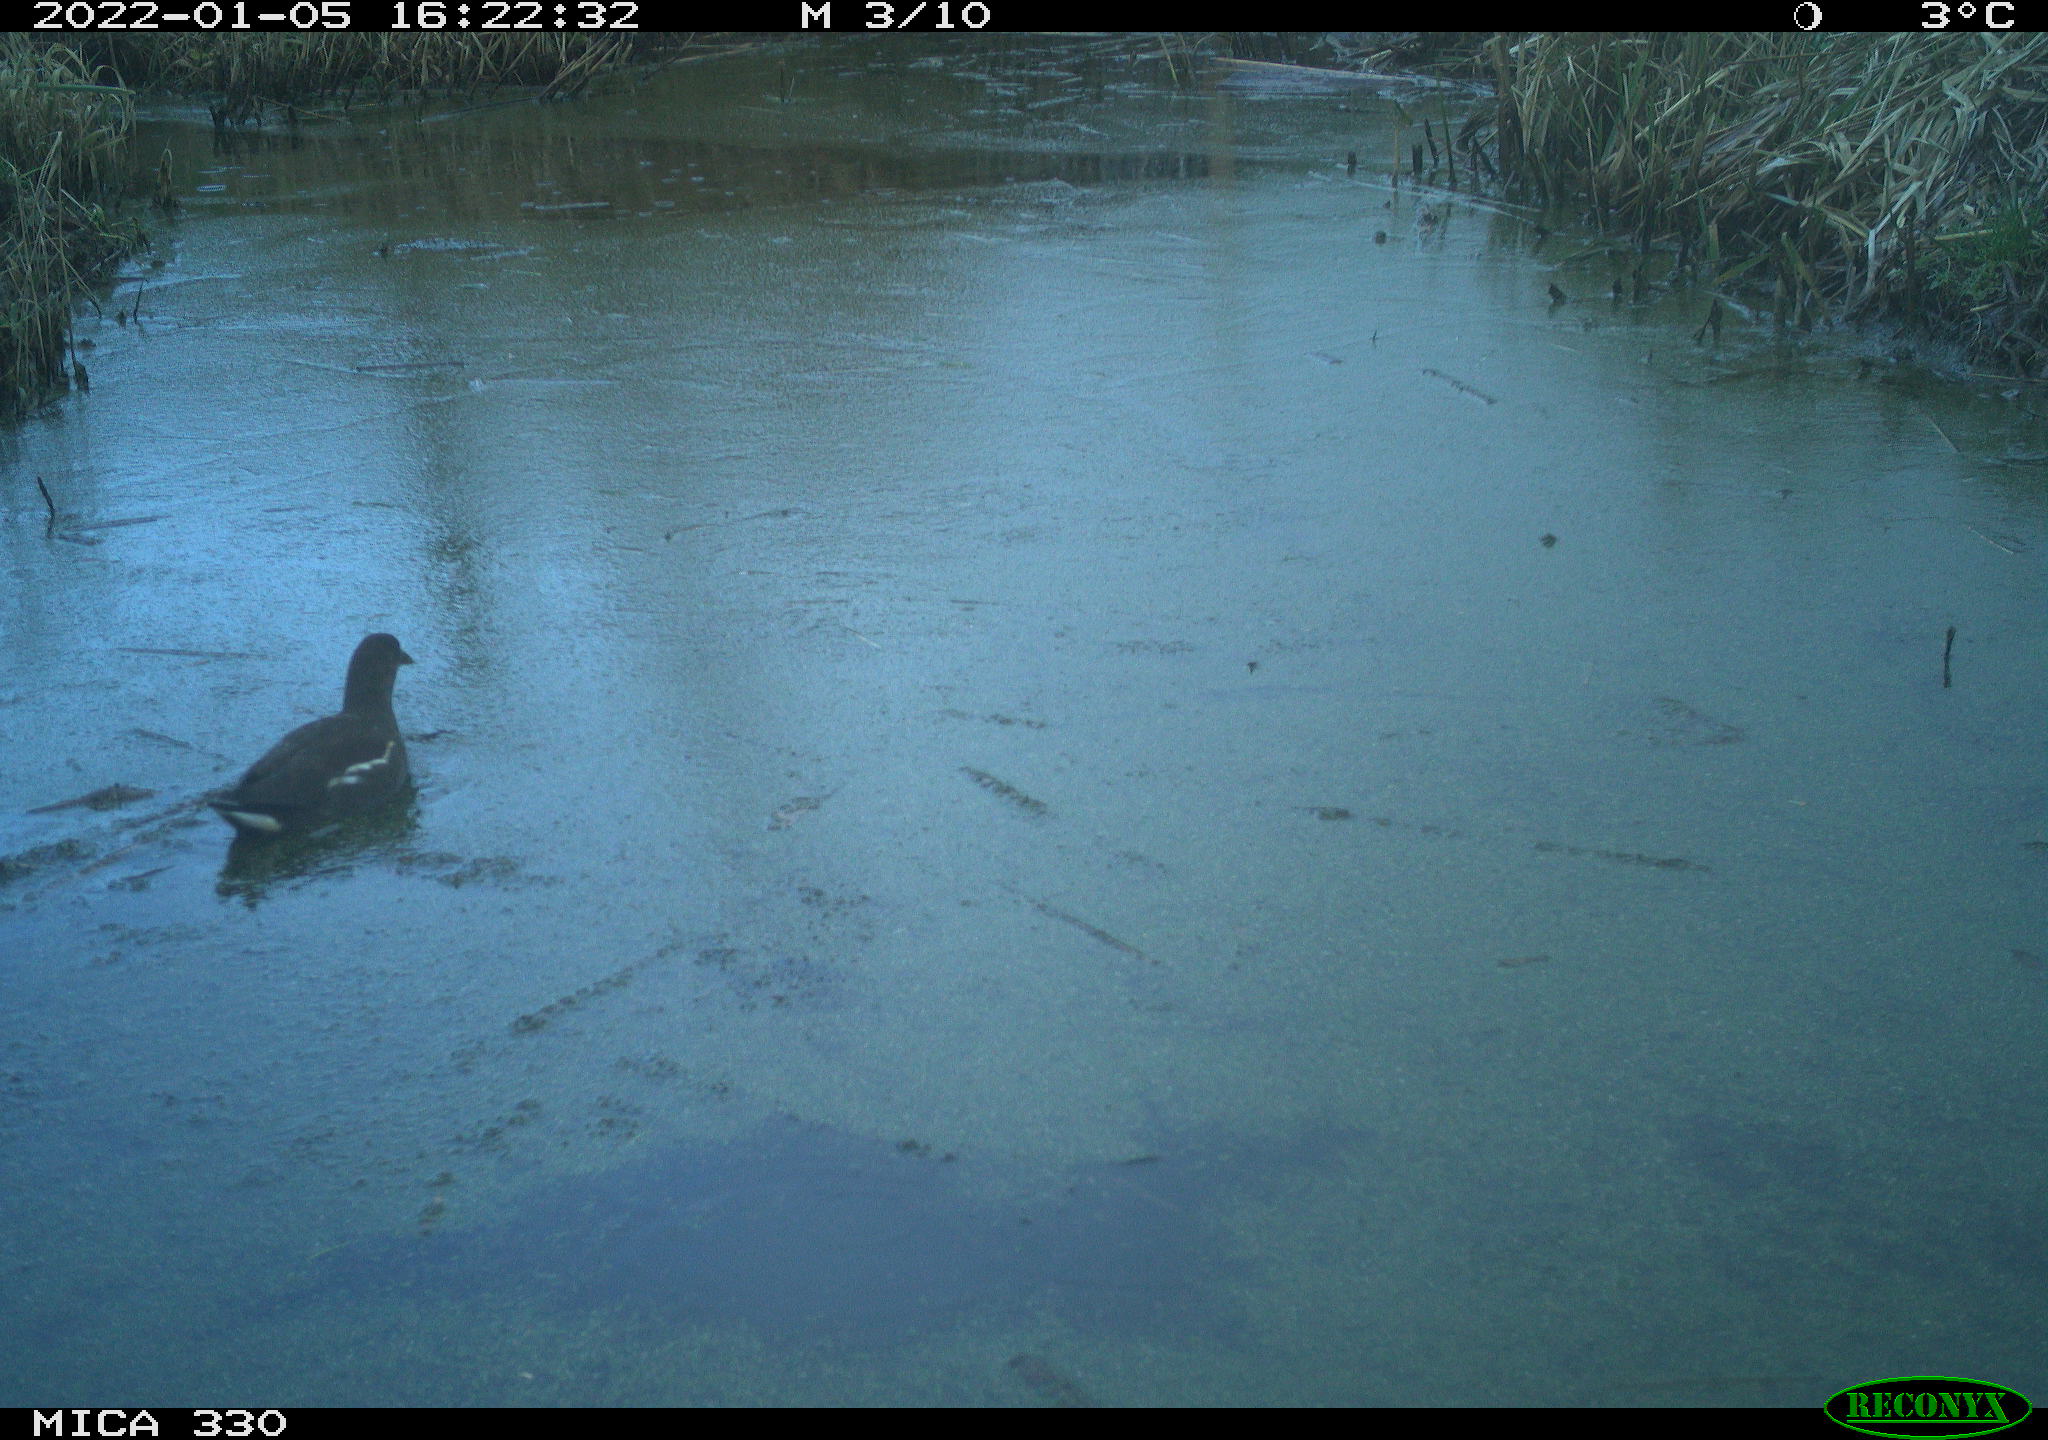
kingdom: Animalia
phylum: Chordata
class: Aves
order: Gruiformes
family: Rallidae
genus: Gallinula
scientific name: Gallinula chloropus
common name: Common moorhen
